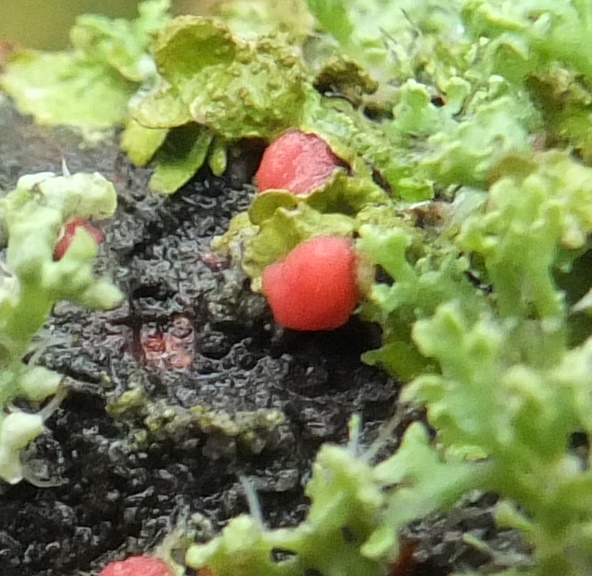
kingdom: Fungi
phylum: Ascomycota
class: Sordariomycetes
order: Hypocreales
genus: Illosporiopsis
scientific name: Illosporiopsis christiansenii
